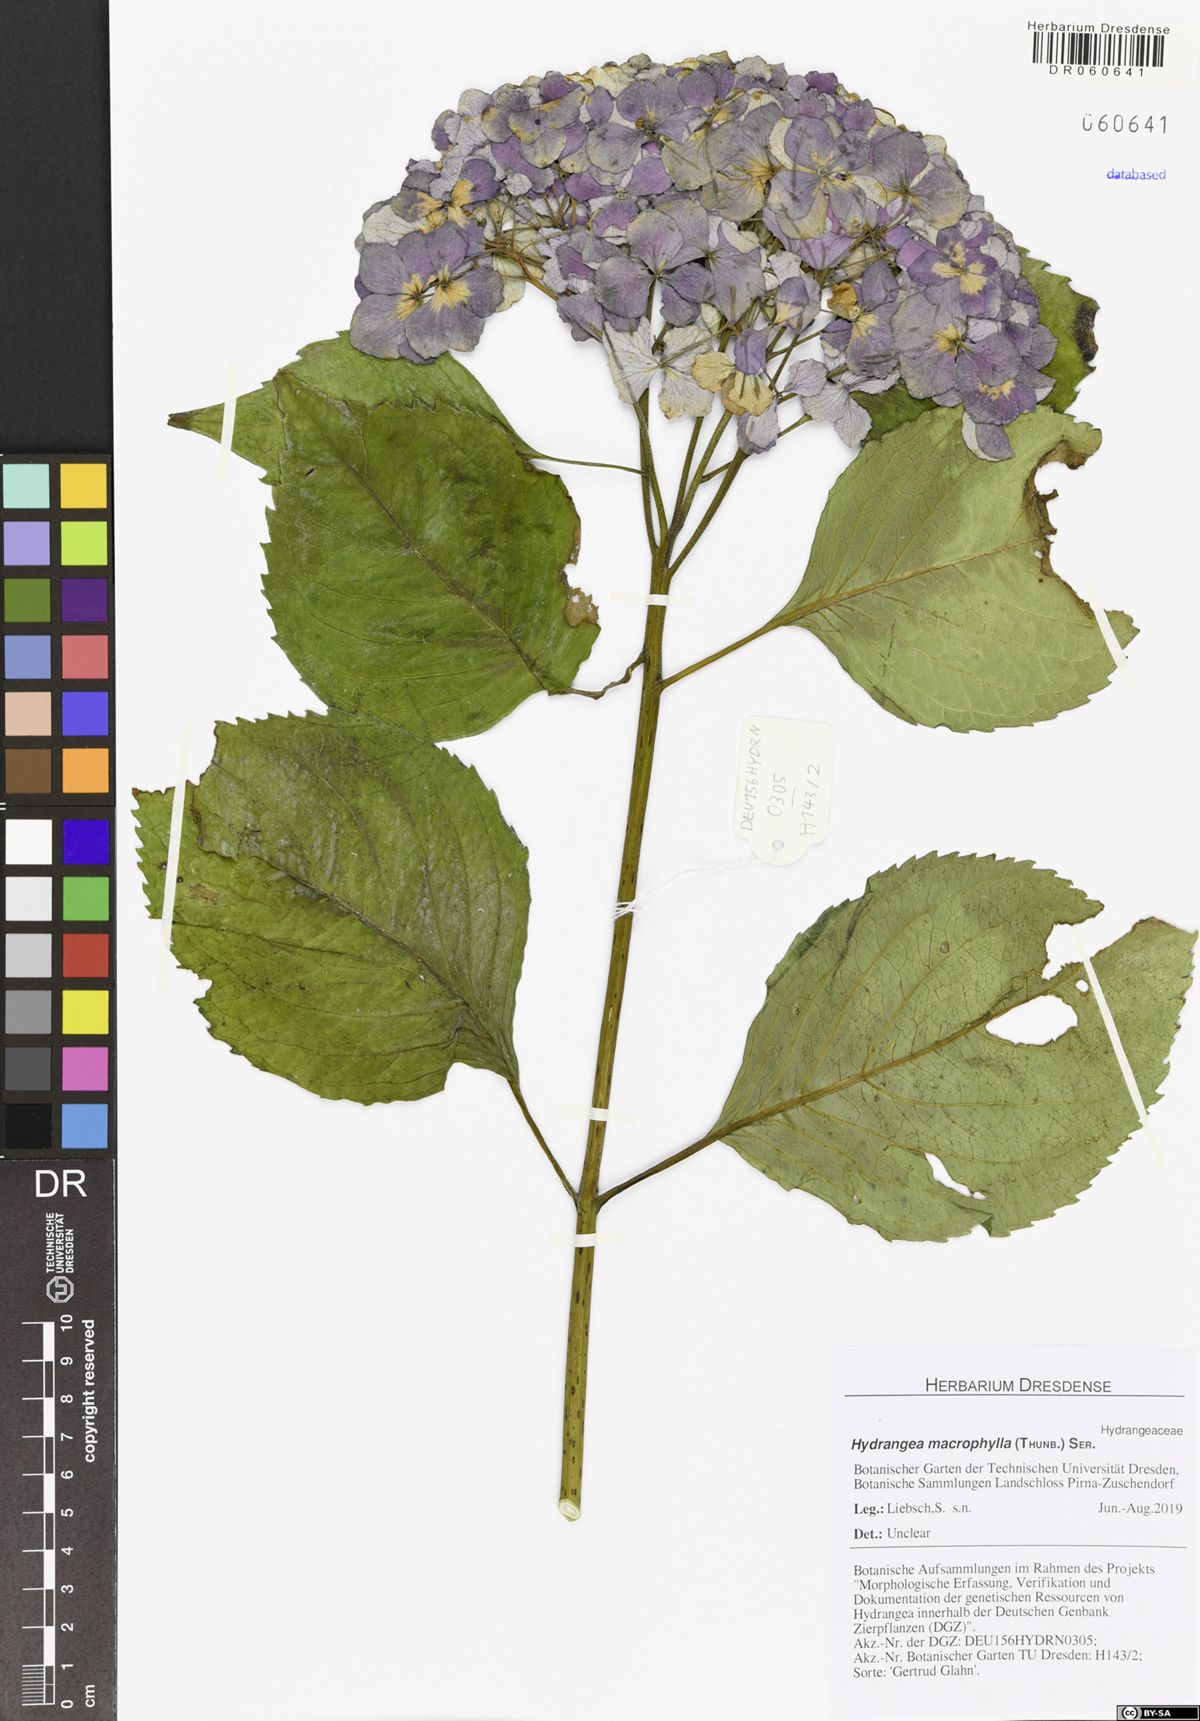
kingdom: Plantae
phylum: Tracheophyta
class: Magnoliopsida
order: Cornales
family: Hydrangeaceae
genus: Hydrangea
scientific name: Hydrangea macrophylla
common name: Hydrangea
